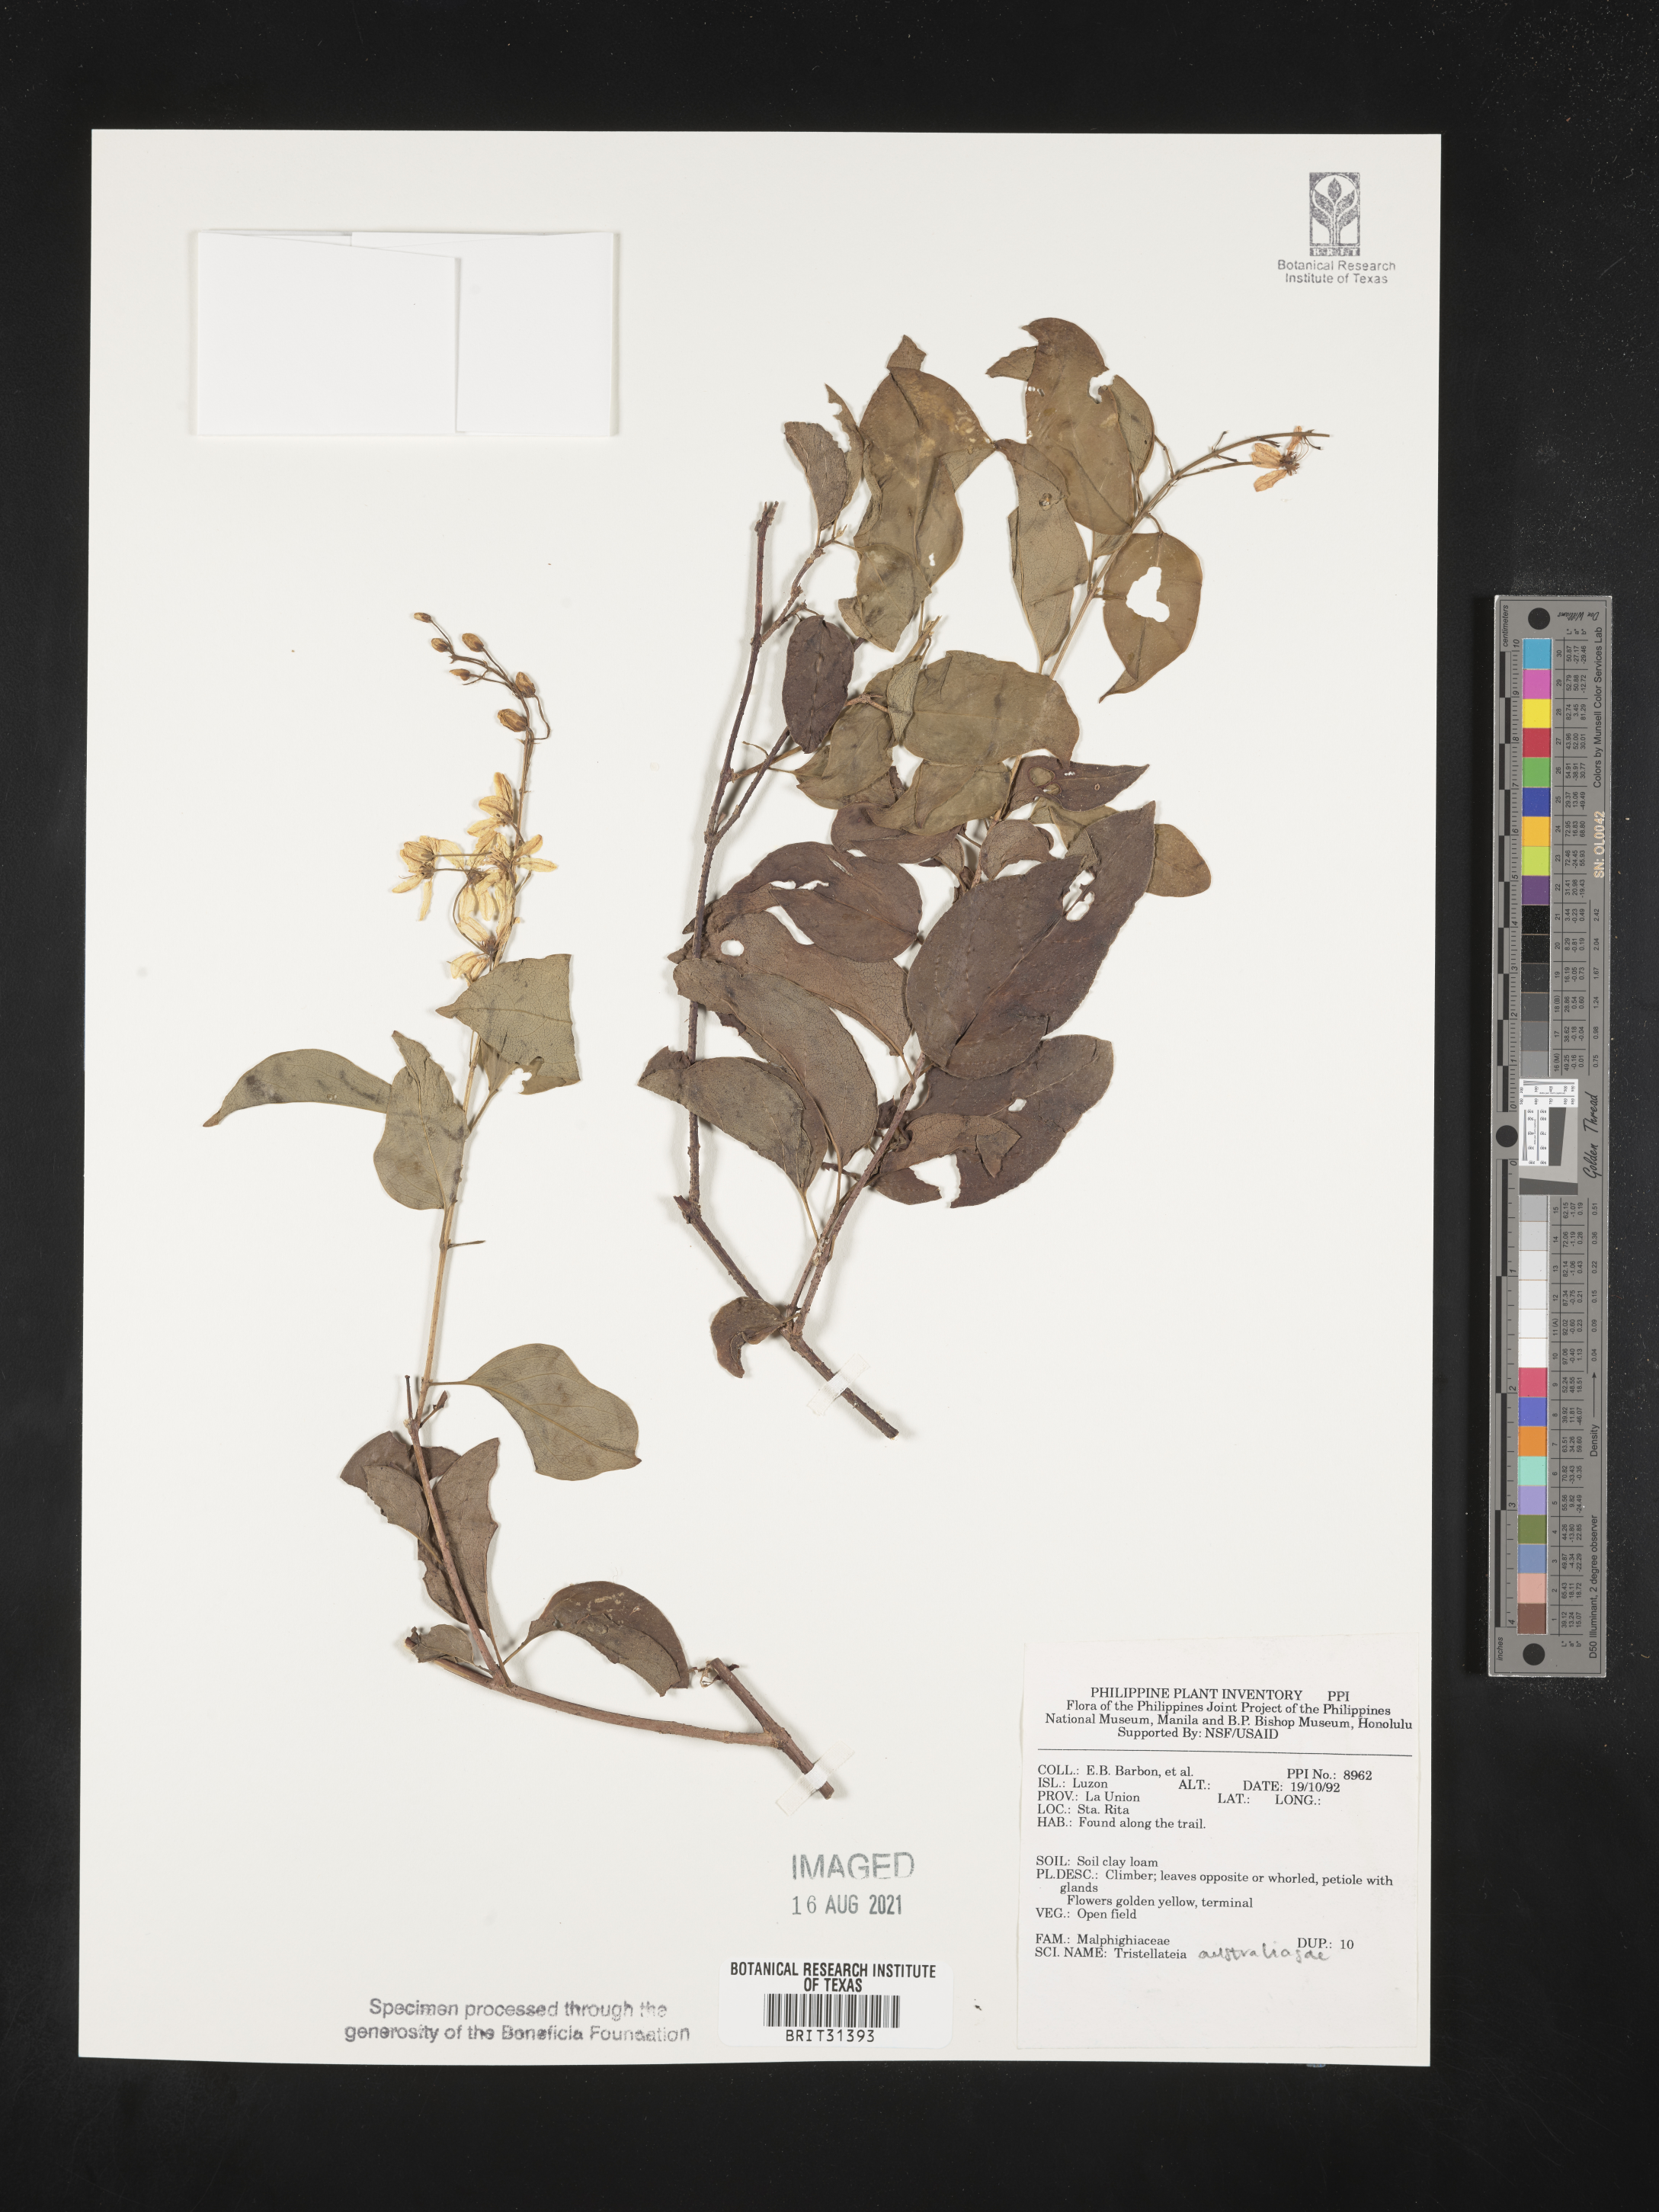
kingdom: Plantae
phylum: Tracheophyta
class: Magnoliopsida
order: Malpighiales
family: Malpighiaceae
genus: Tristellateia
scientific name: Tristellateia australasiae
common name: Australian goldvine
